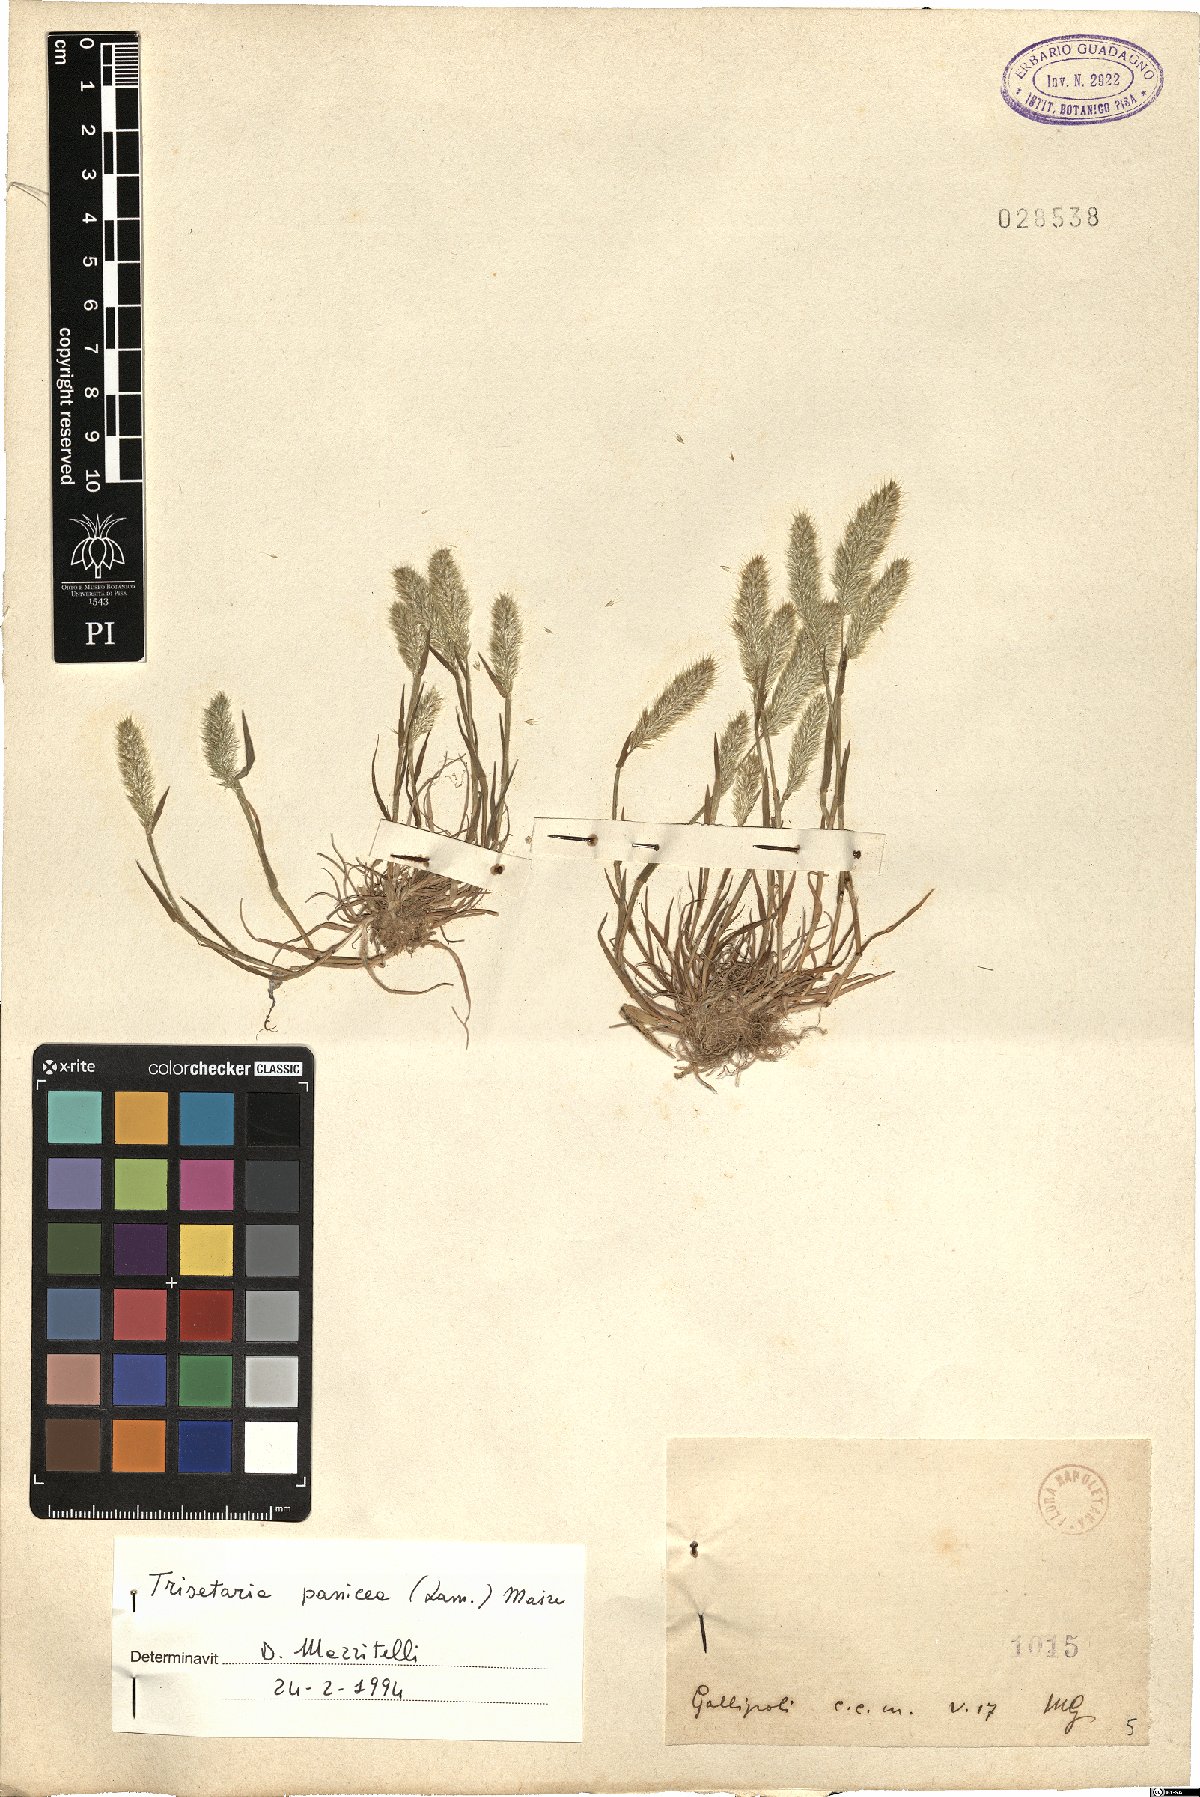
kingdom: Plantae
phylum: Tracheophyta
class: Liliopsida
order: Poales
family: Poaceae
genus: Trisetaria
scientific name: Trisetaria panicea
